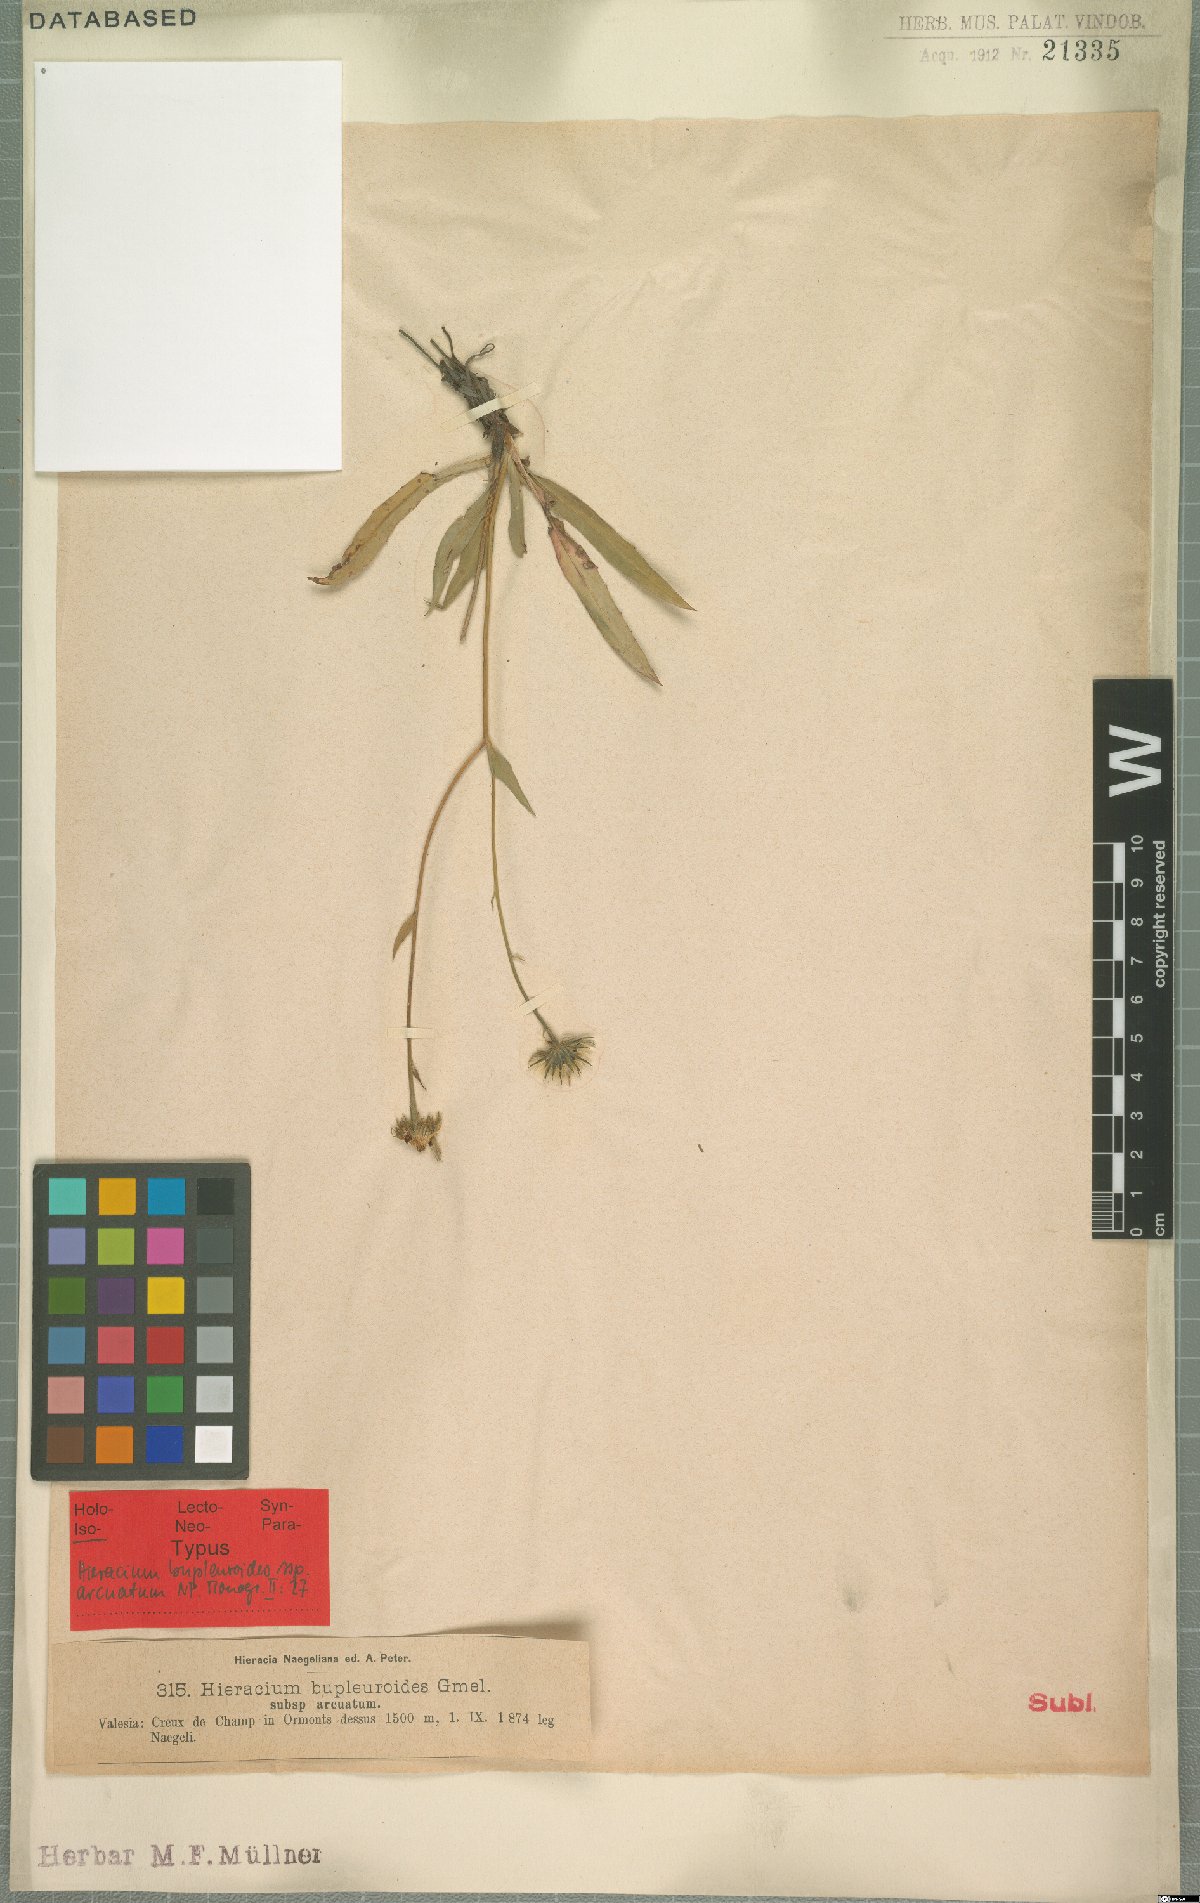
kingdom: Plantae
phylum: Tracheophyta
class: Magnoliopsida
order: Asterales
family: Asteraceae
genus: Hieracium
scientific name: Hieracium bupleuroides
